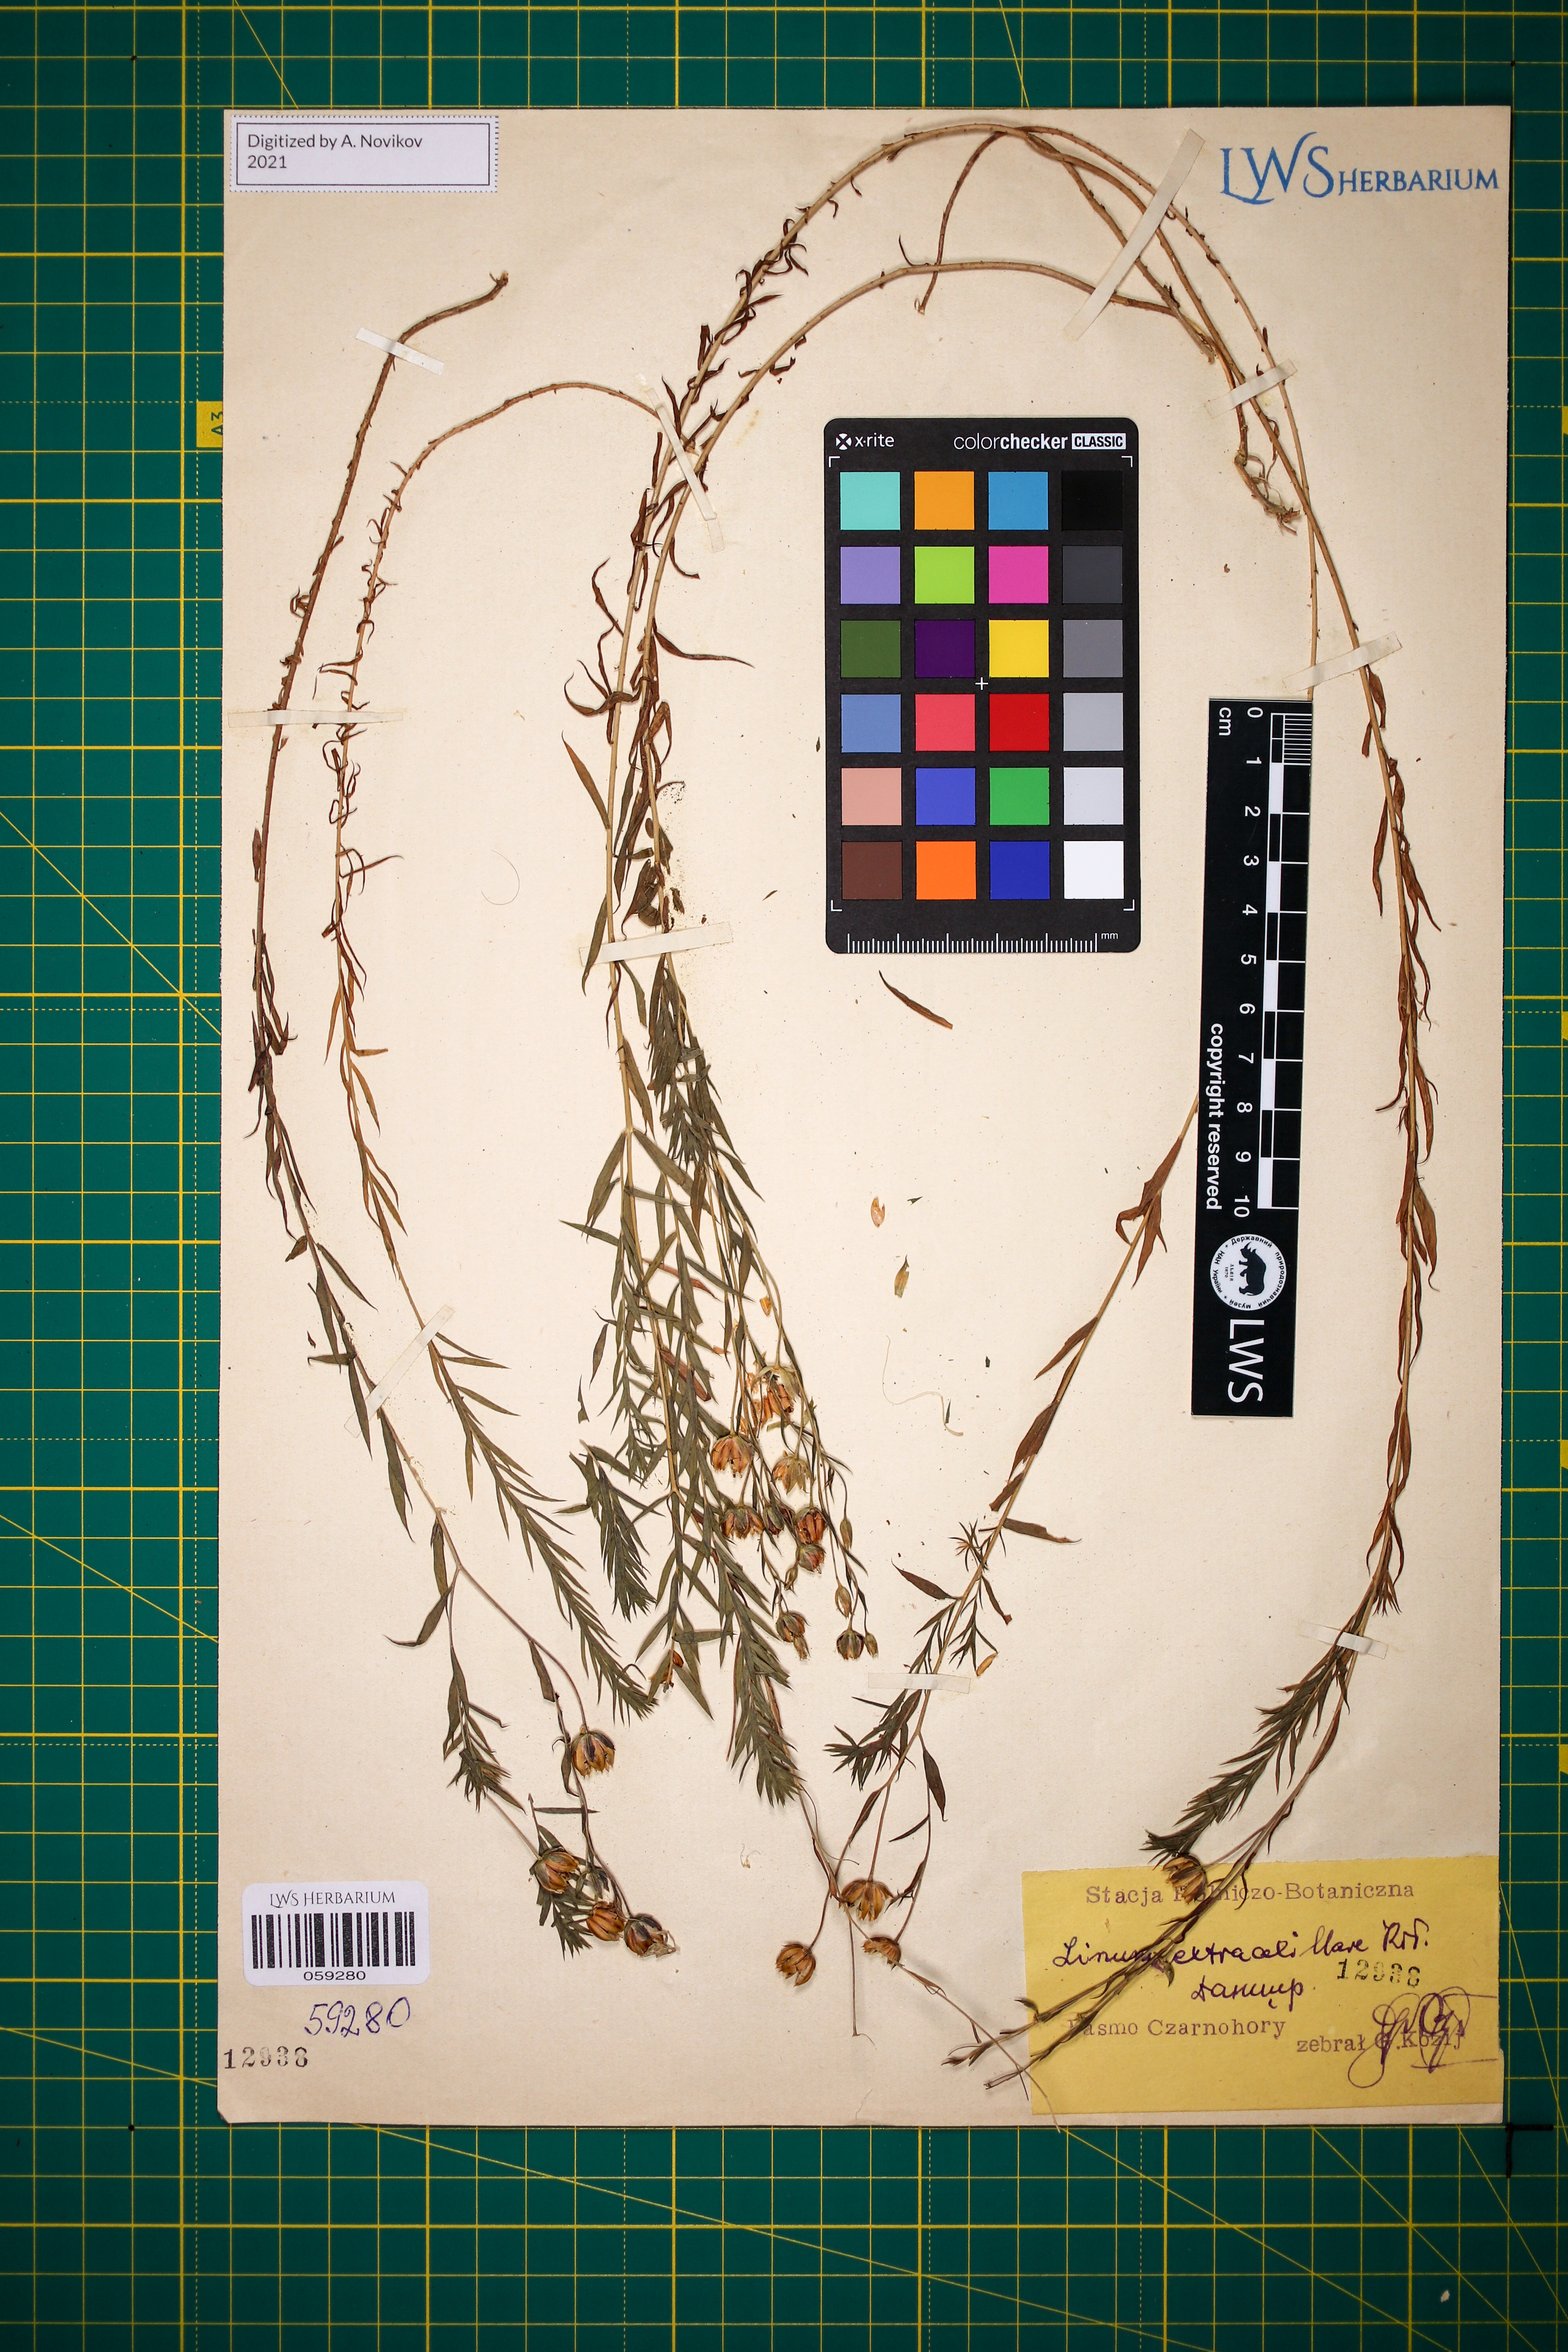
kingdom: Plantae
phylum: Tracheophyta
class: Magnoliopsida
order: Malpighiales
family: Linaceae
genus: Linum
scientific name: Linum perenne
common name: Blue flax
